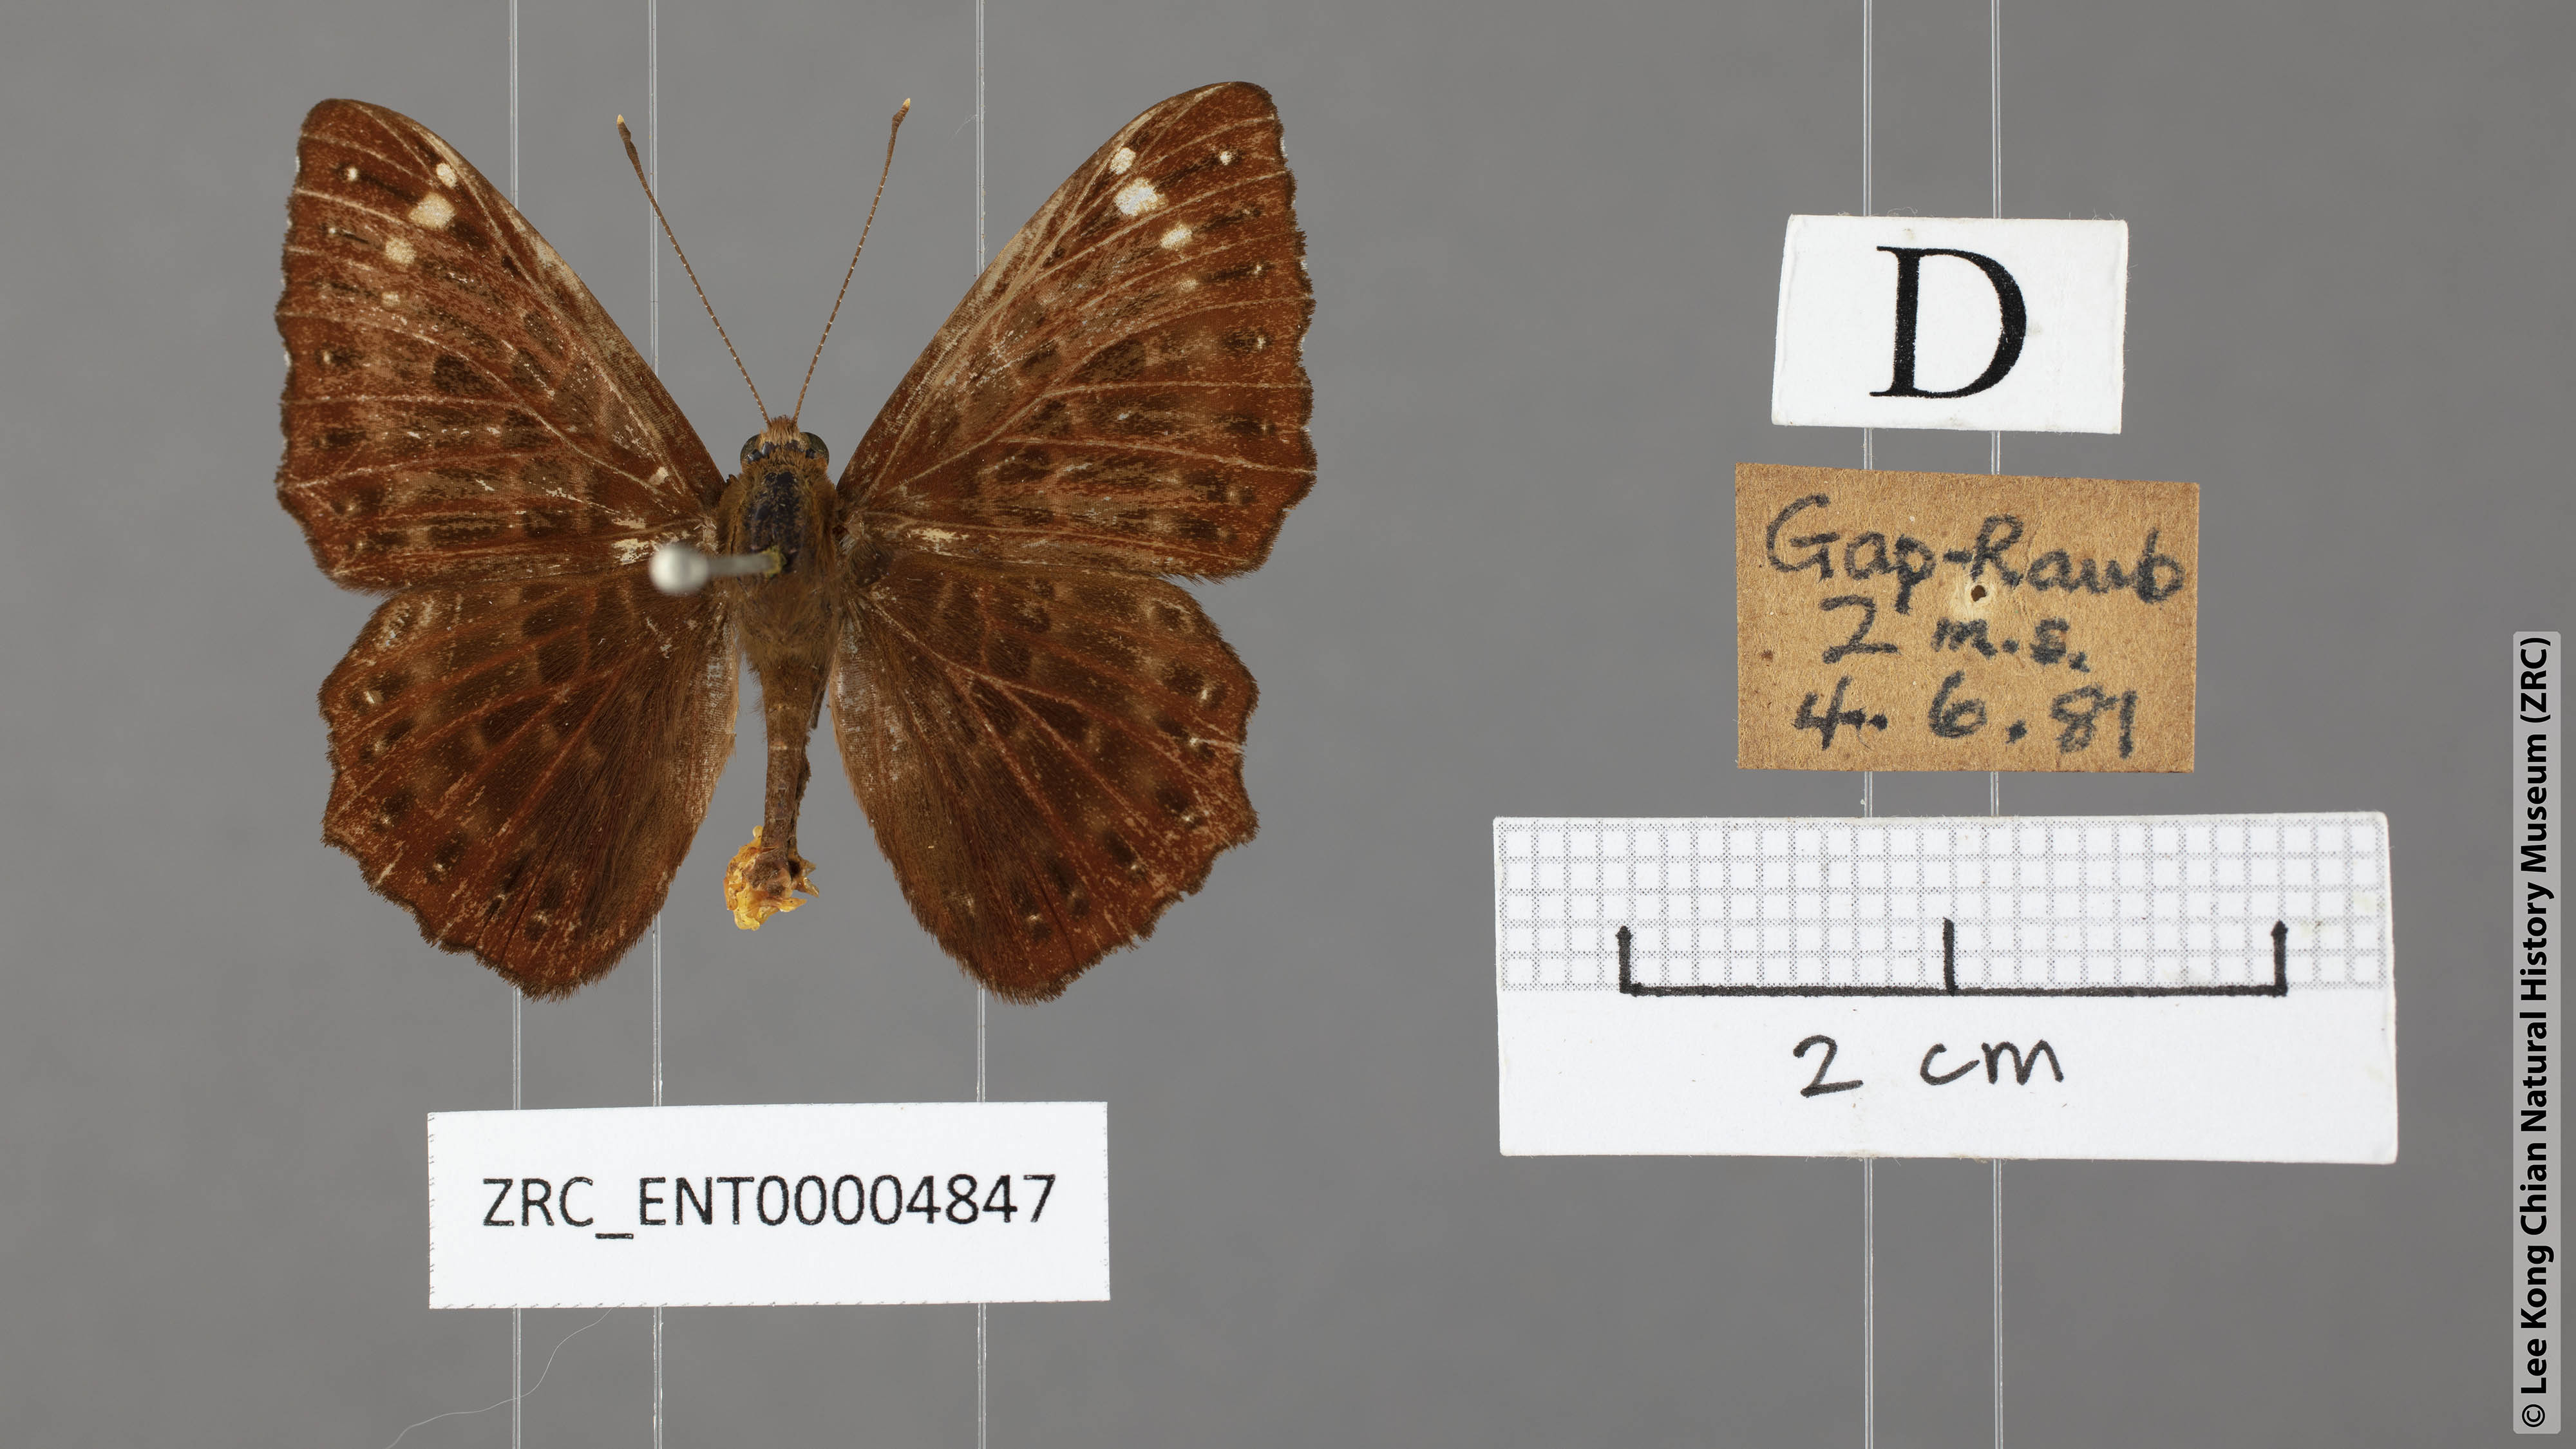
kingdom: Animalia
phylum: Arthropoda
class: Insecta
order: Lepidoptera
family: Riodinidae
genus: Zemeros
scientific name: Zemeros flegyas
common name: Punchinello
